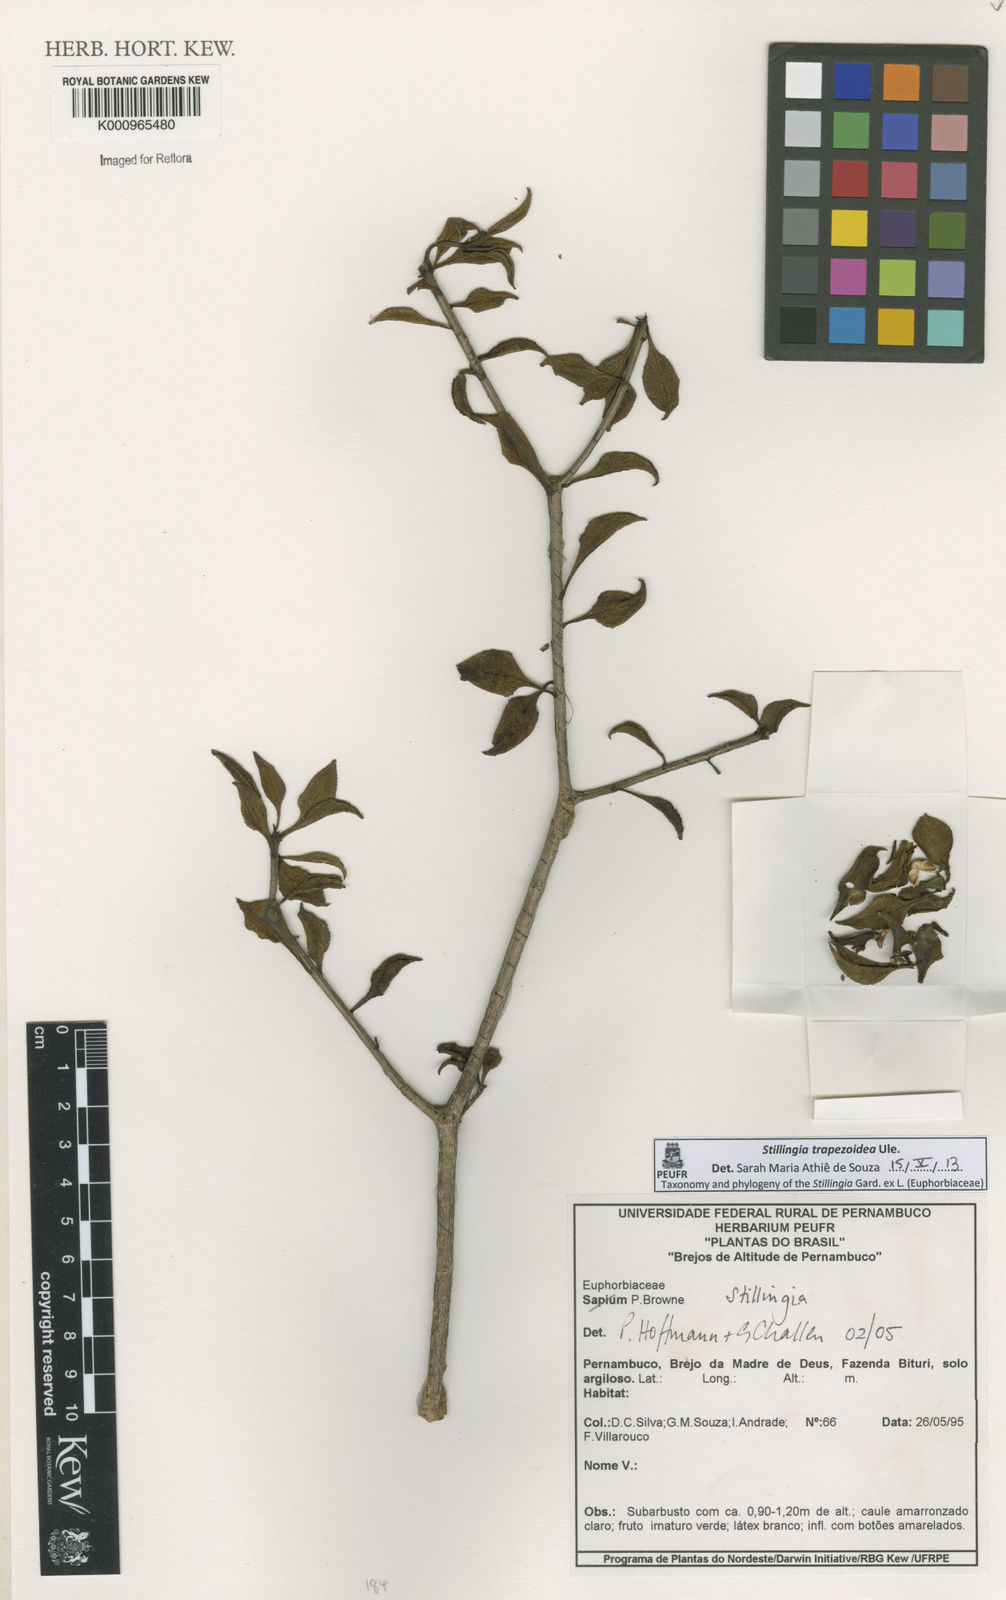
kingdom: Plantae
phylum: Tracheophyta
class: Magnoliopsida
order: Malpighiales
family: Euphorbiaceae
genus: Stillingia
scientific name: Stillingia trapezoidea
